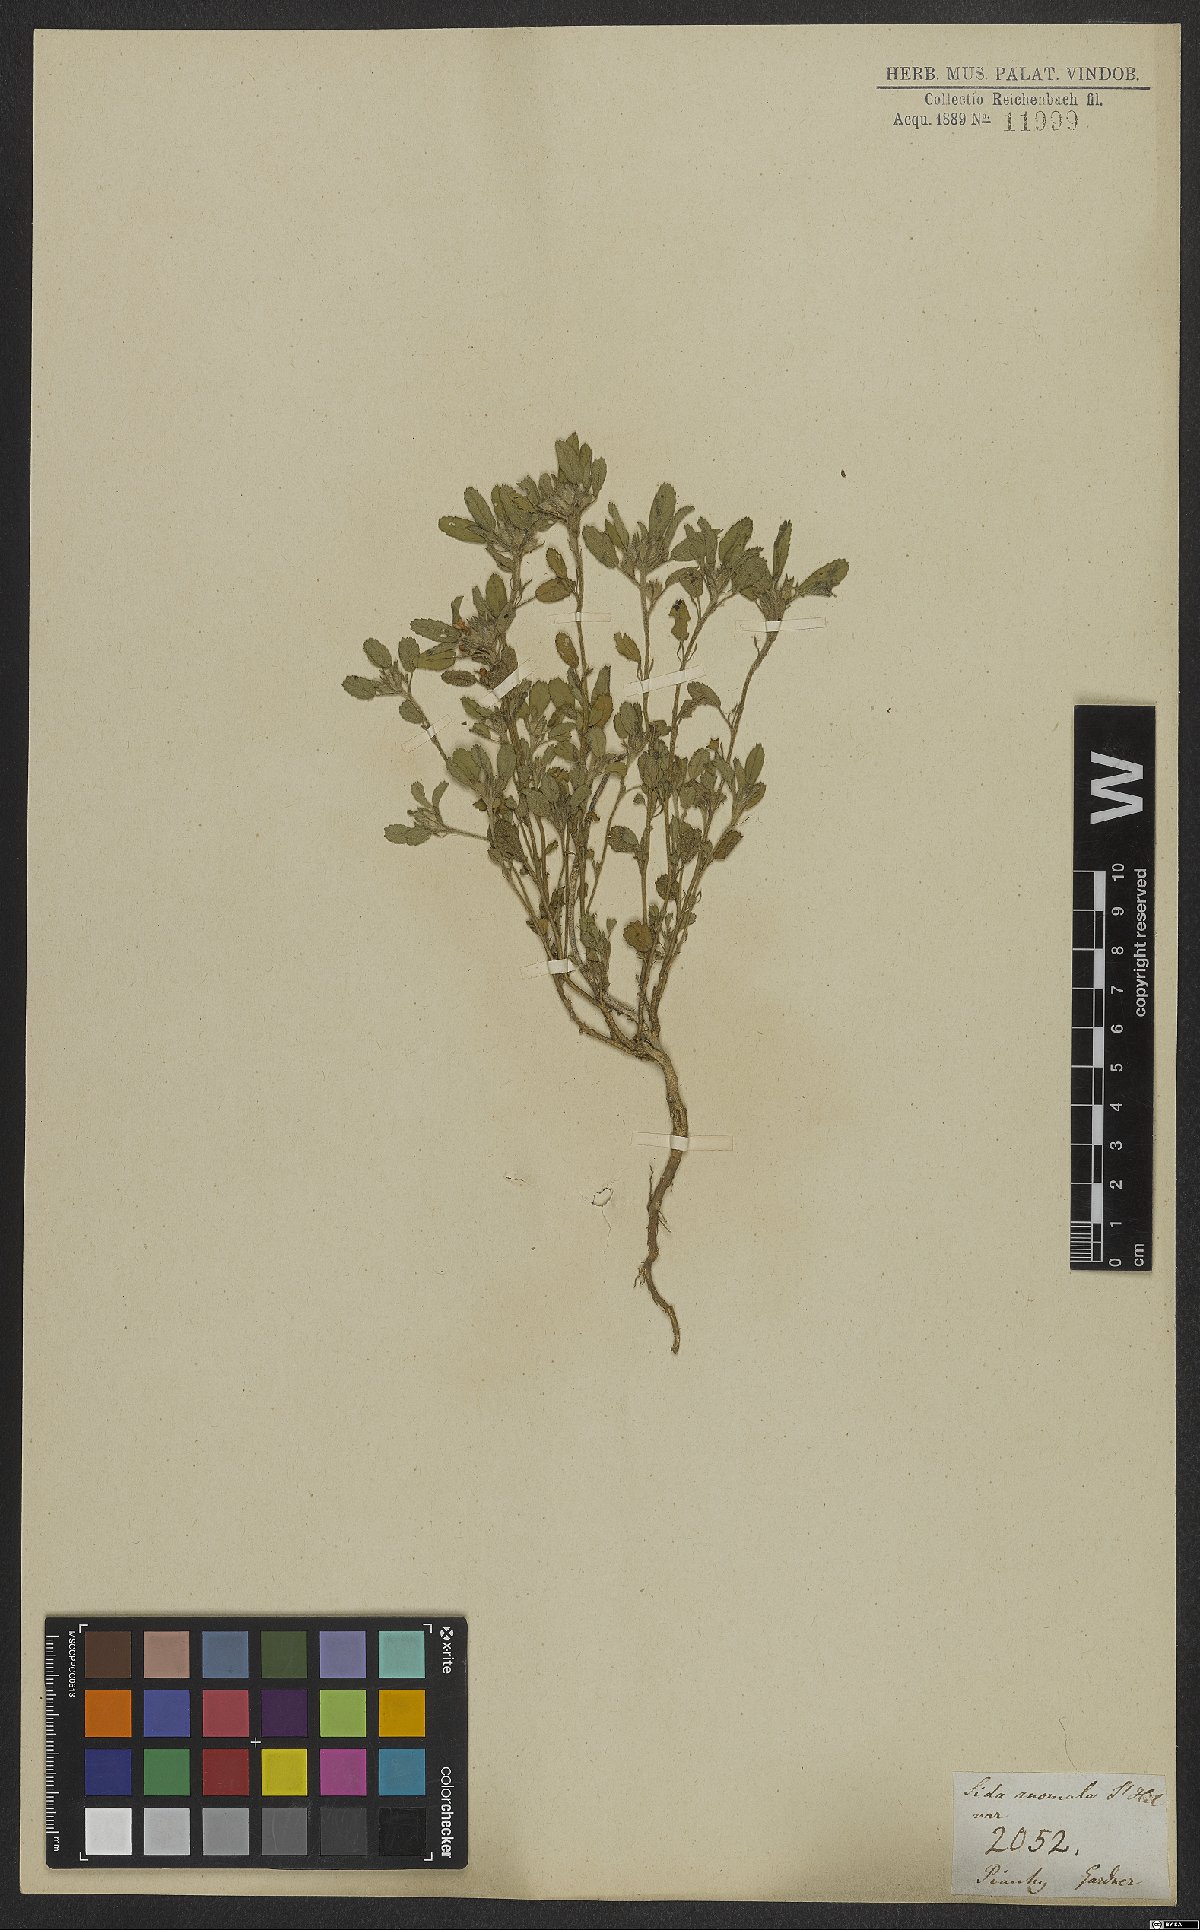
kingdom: Plantae
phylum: Tracheophyta
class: Magnoliopsida
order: Malvales
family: Malvaceae
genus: Sida
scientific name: Sida ciliaris
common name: Bracted fanpetals
